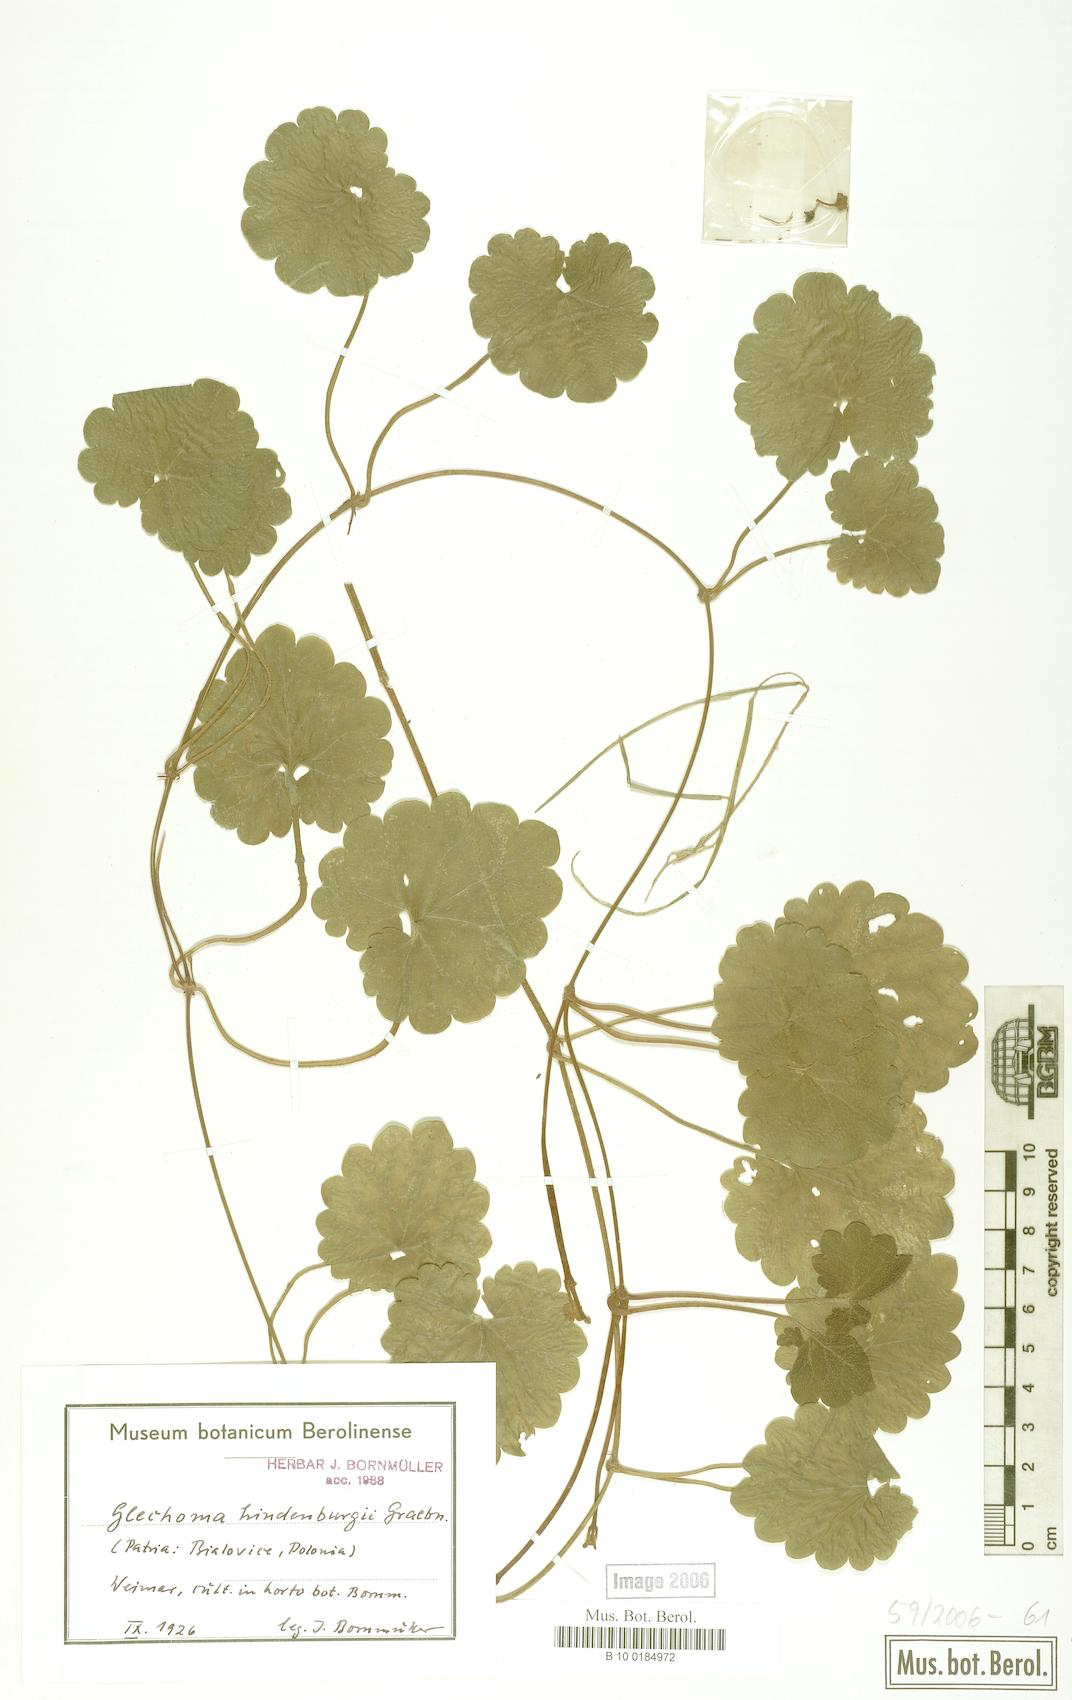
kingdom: Plantae
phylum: Tracheophyta
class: Magnoliopsida
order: Lamiales
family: Lamiaceae
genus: Glechoma
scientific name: Glechoma pannonica
